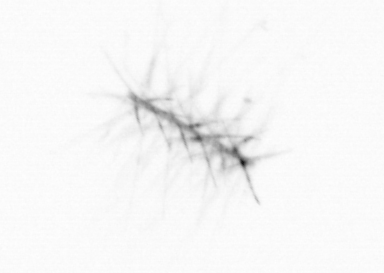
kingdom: Chromista
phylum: Ochrophyta
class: Bacillariophyceae
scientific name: Bacillariophyceae
